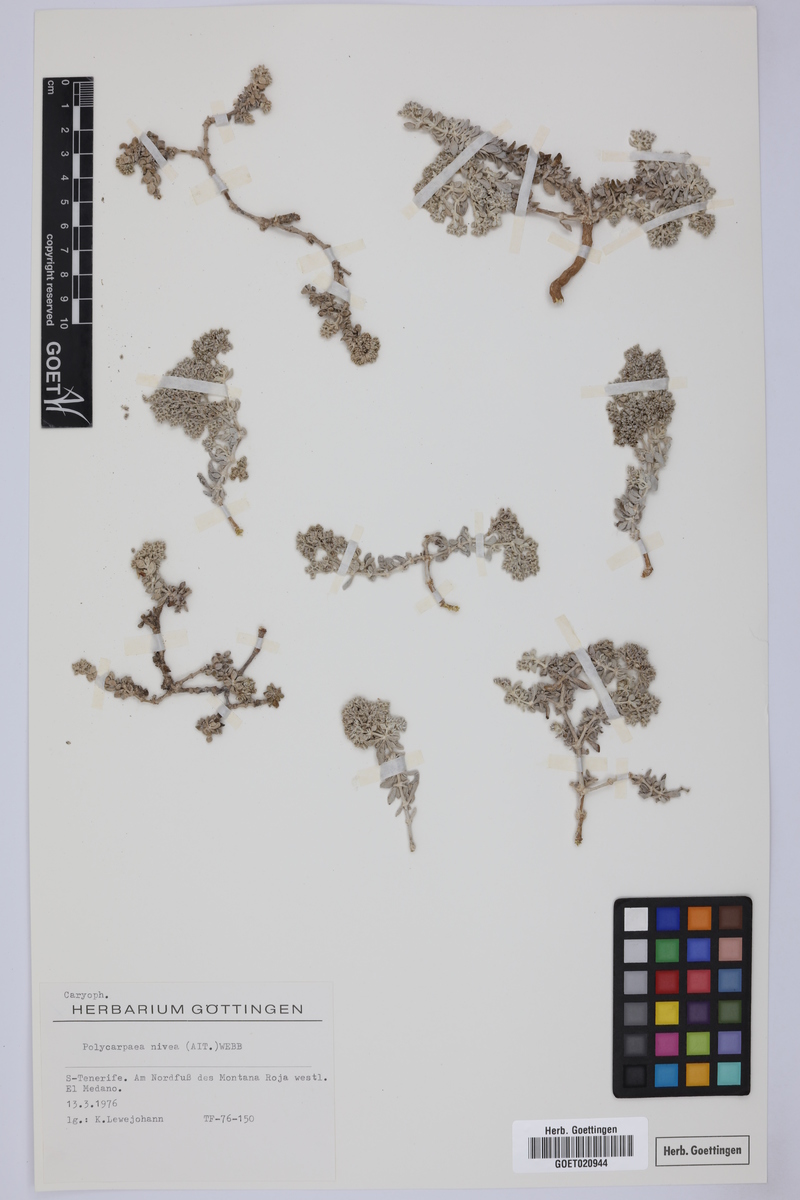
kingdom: Plantae
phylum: Tracheophyta
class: Magnoliopsida
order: Caryophyllales
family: Caryophyllaceae
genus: Polycarpaea
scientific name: Polycarpaea nivea
